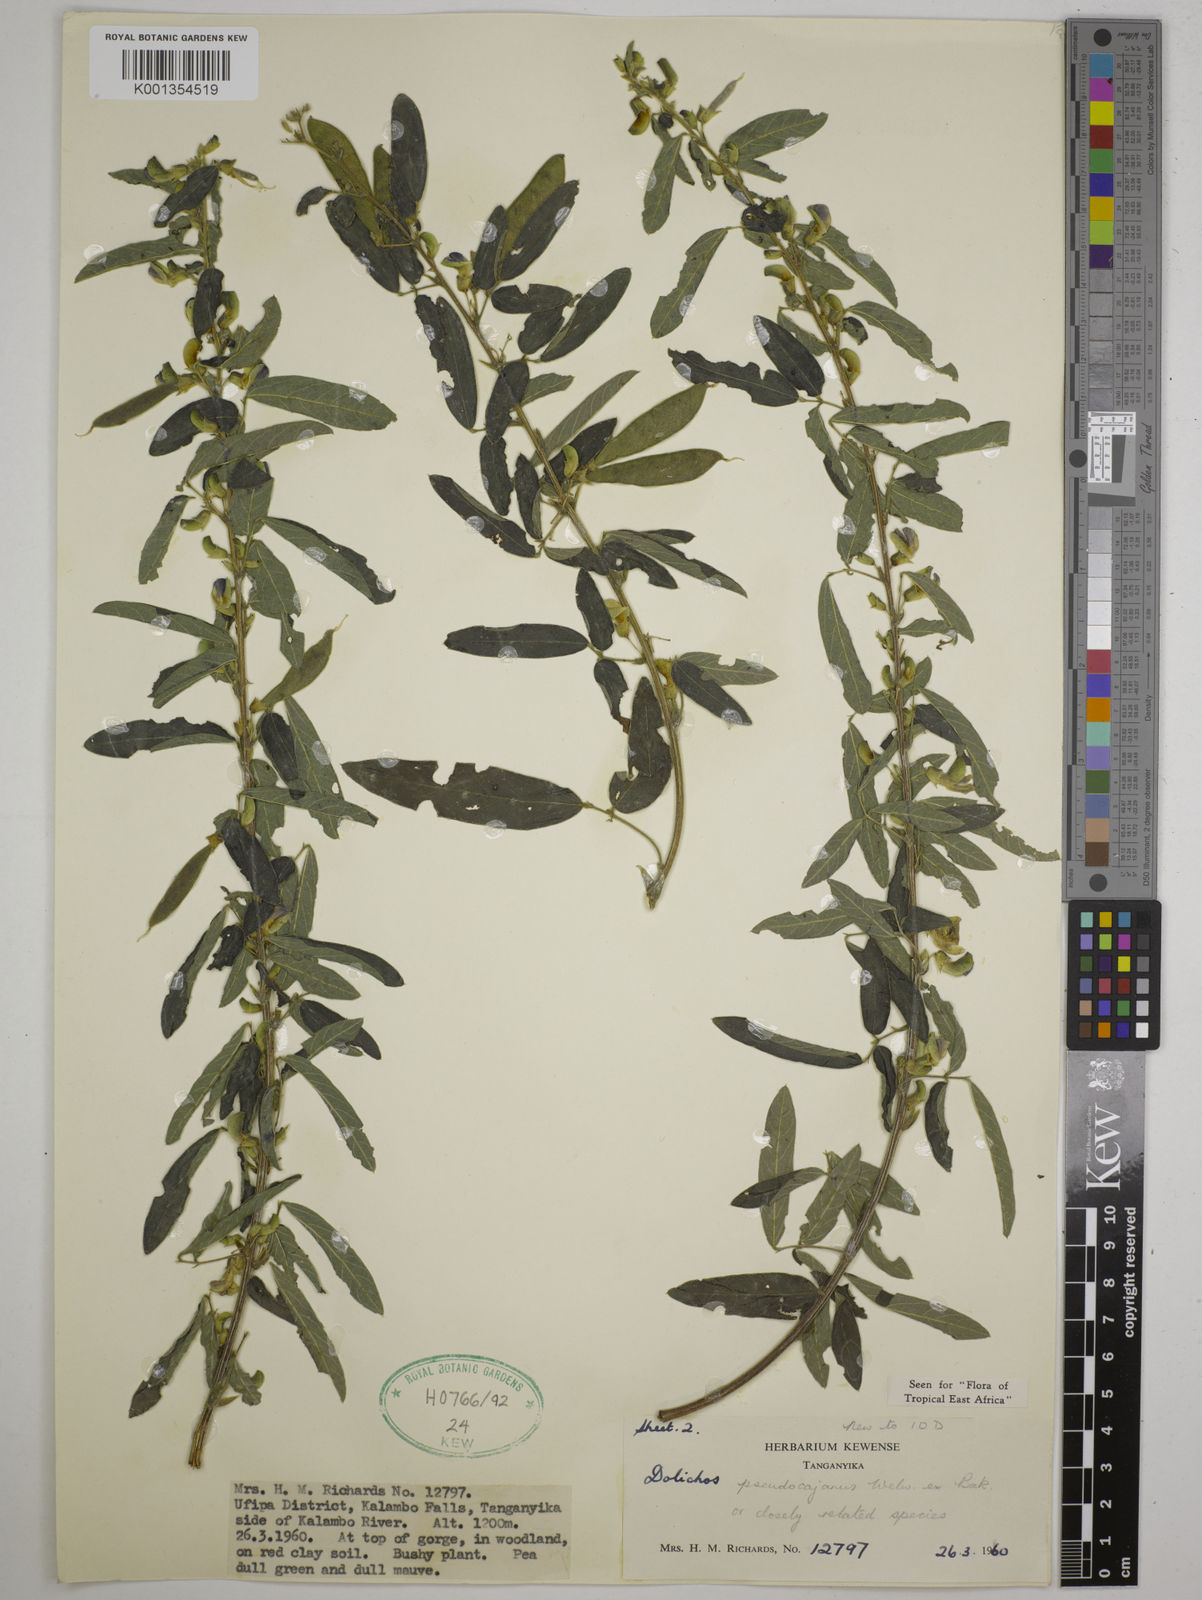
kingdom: Plantae
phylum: Tracheophyta
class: Magnoliopsida
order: Fabales
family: Fabaceae
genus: Dolichos
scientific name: Dolichos pseudocajanus
